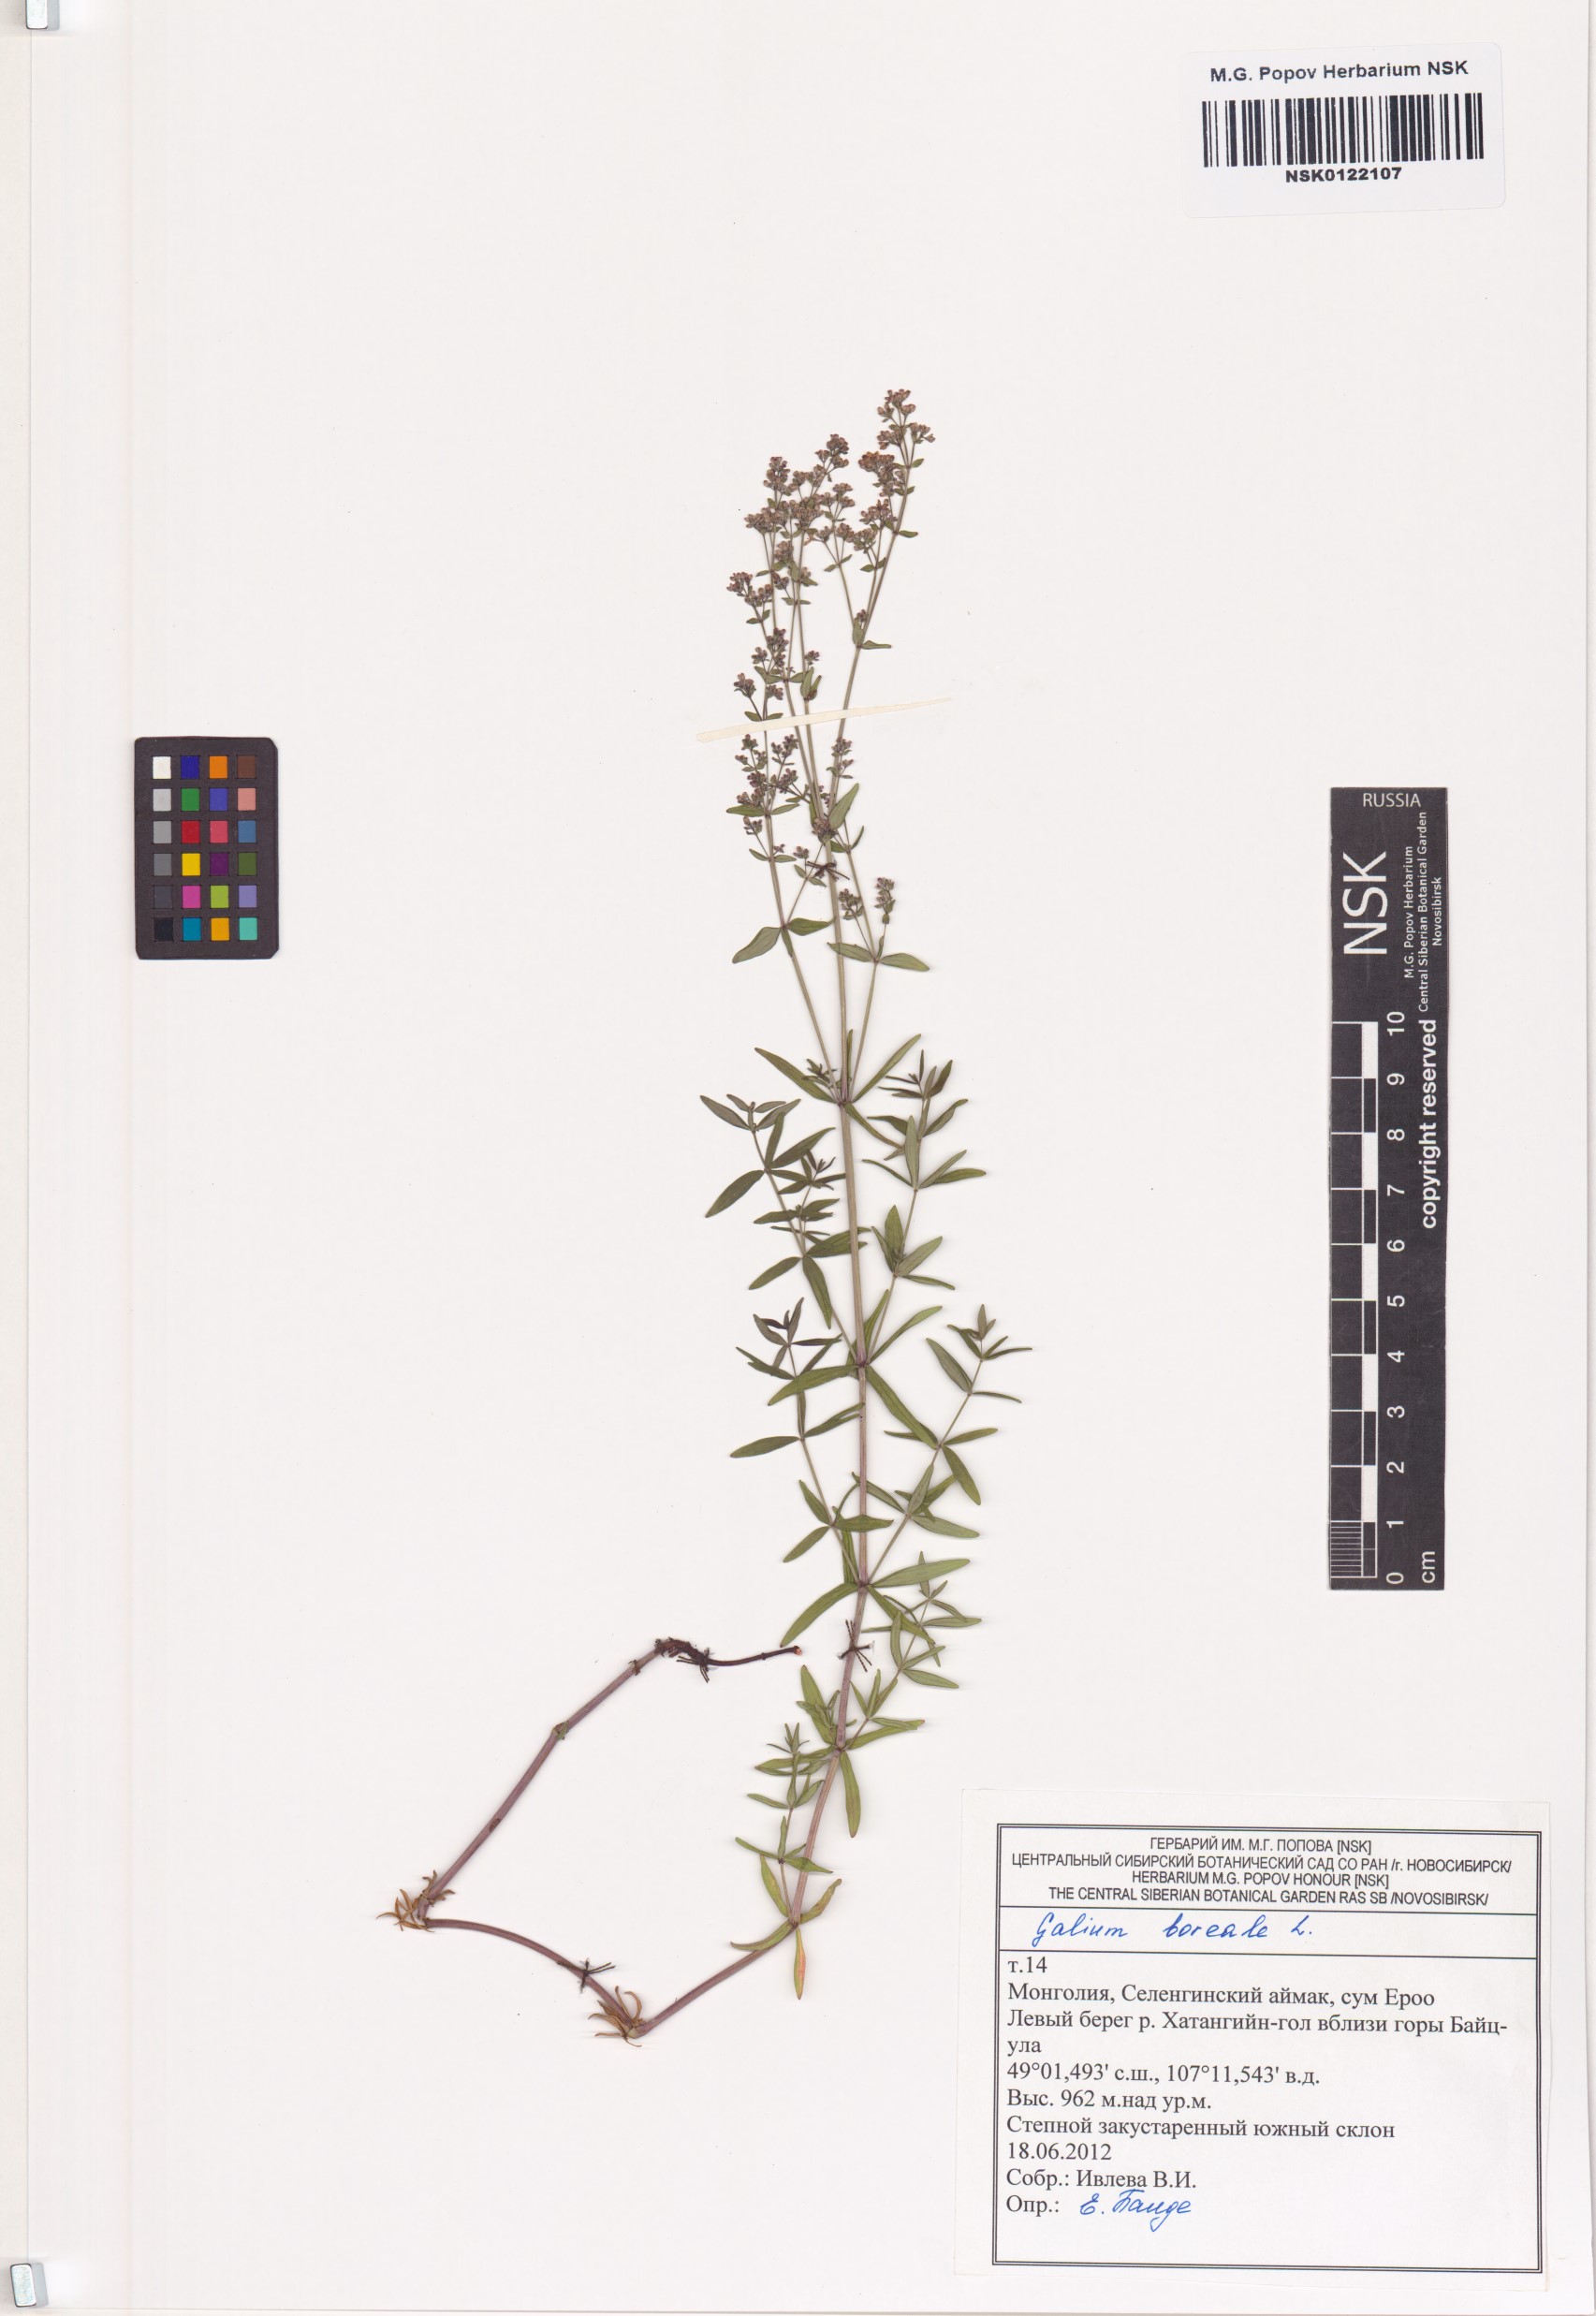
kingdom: Plantae
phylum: Tracheophyta
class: Magnoliopsida
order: Gentianales
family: Rubiaceae
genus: Galium
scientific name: Galium boreale
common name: Northern bedstraw
